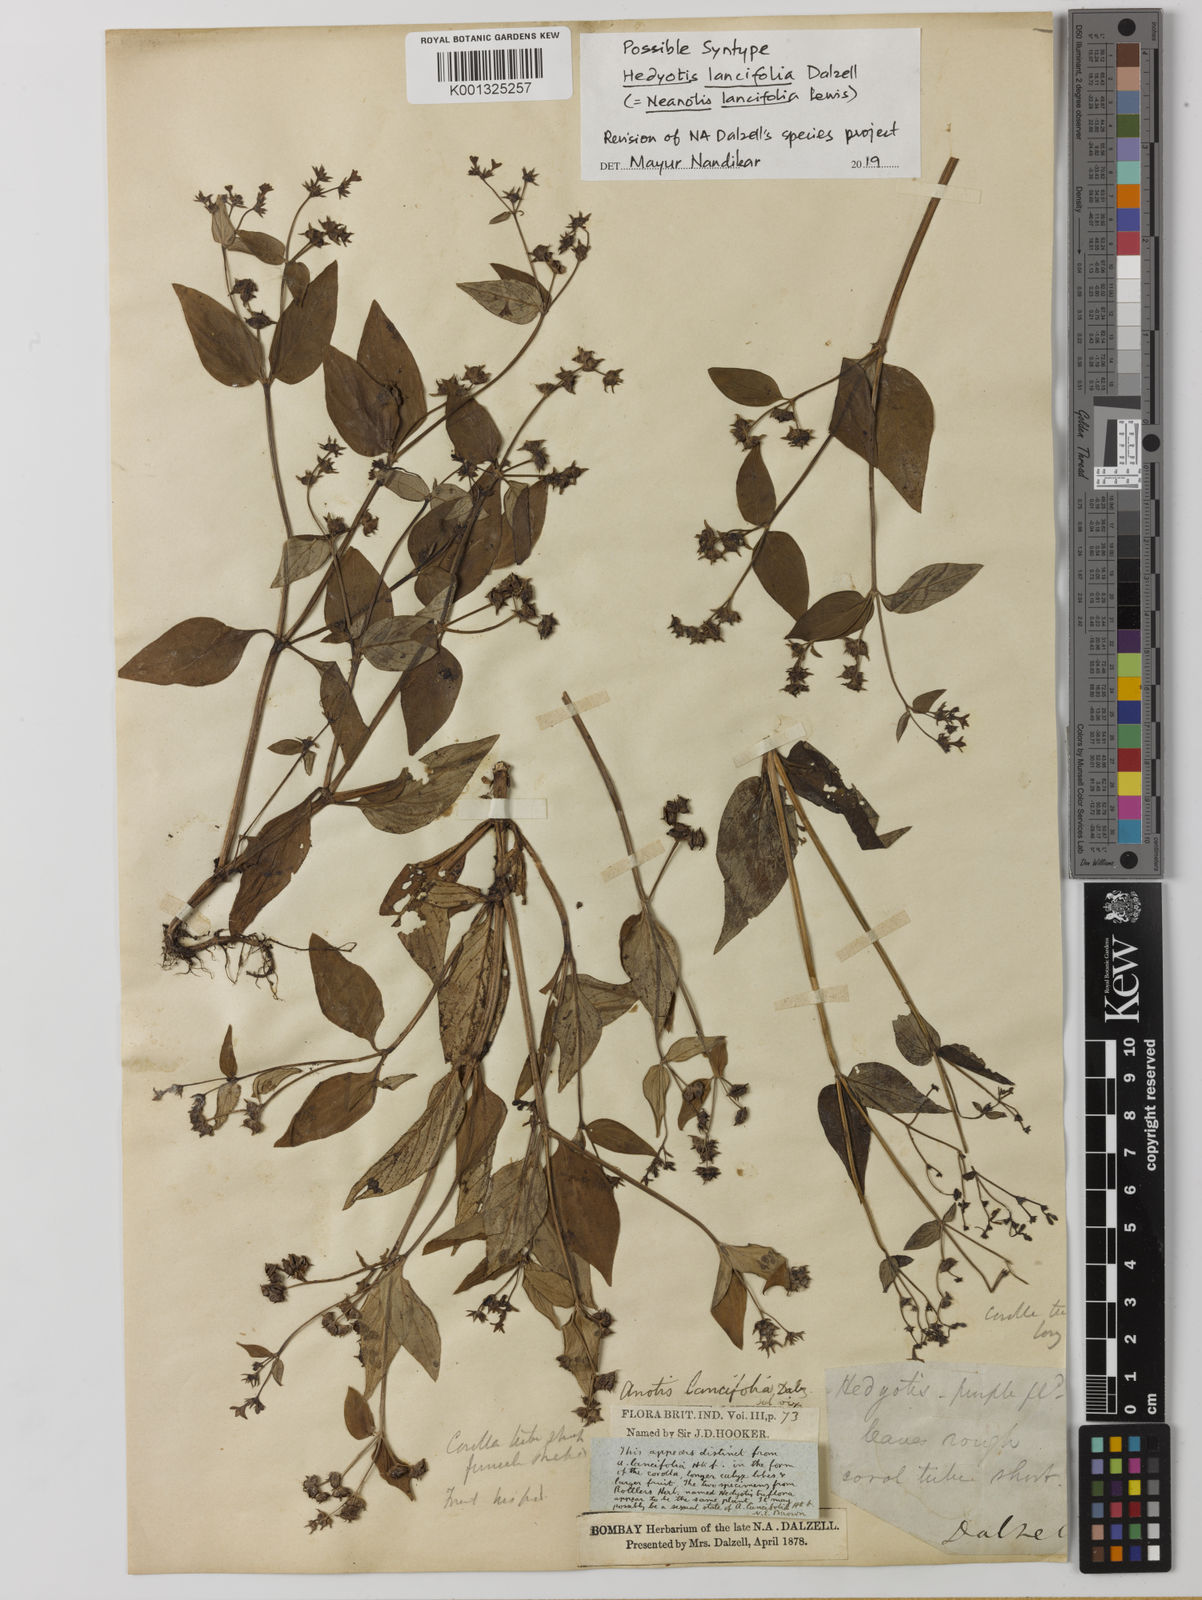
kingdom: Plantae
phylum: Tracheophyta
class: Magnoliopsida
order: Gentianales
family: Rubiaceae
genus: Neanotis
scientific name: Neanotis lancifolia
